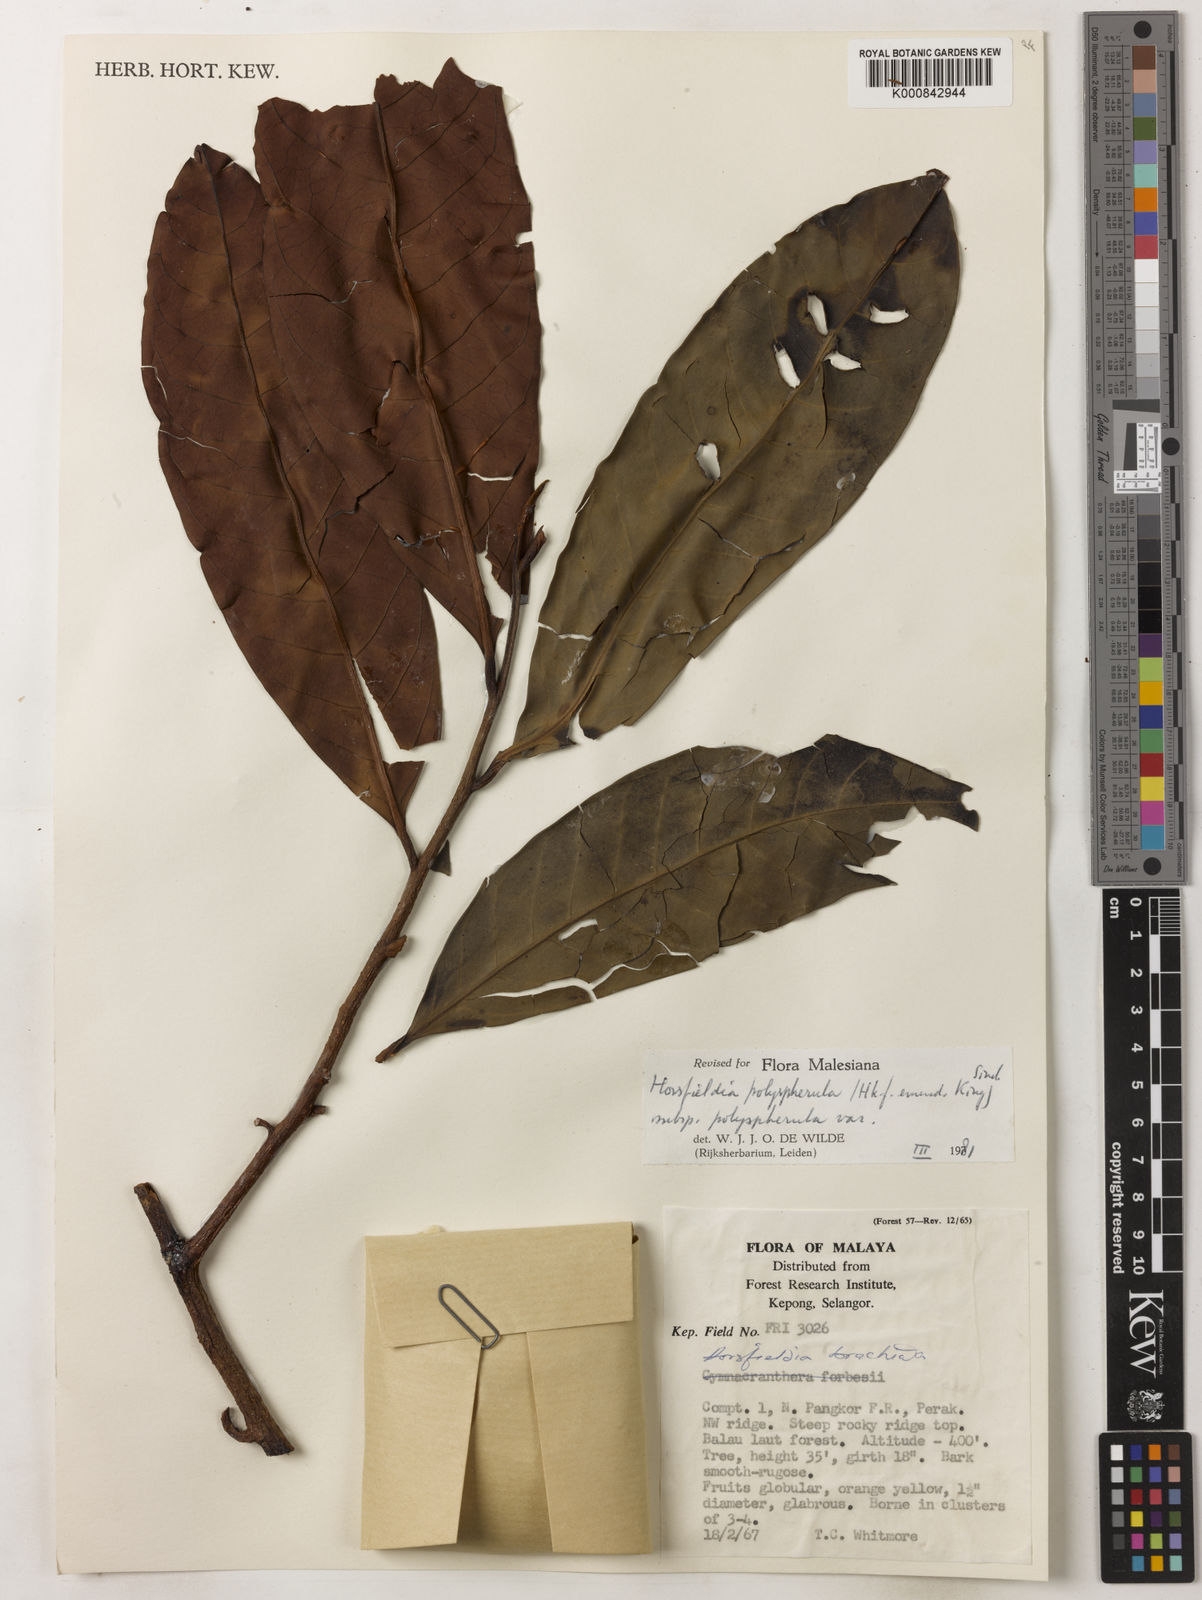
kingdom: Plantae
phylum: Tracheophyta
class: Magnoliopsida
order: Magnoliales
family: Myristicaceae
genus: Horsfieldia
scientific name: Horsfieldia
